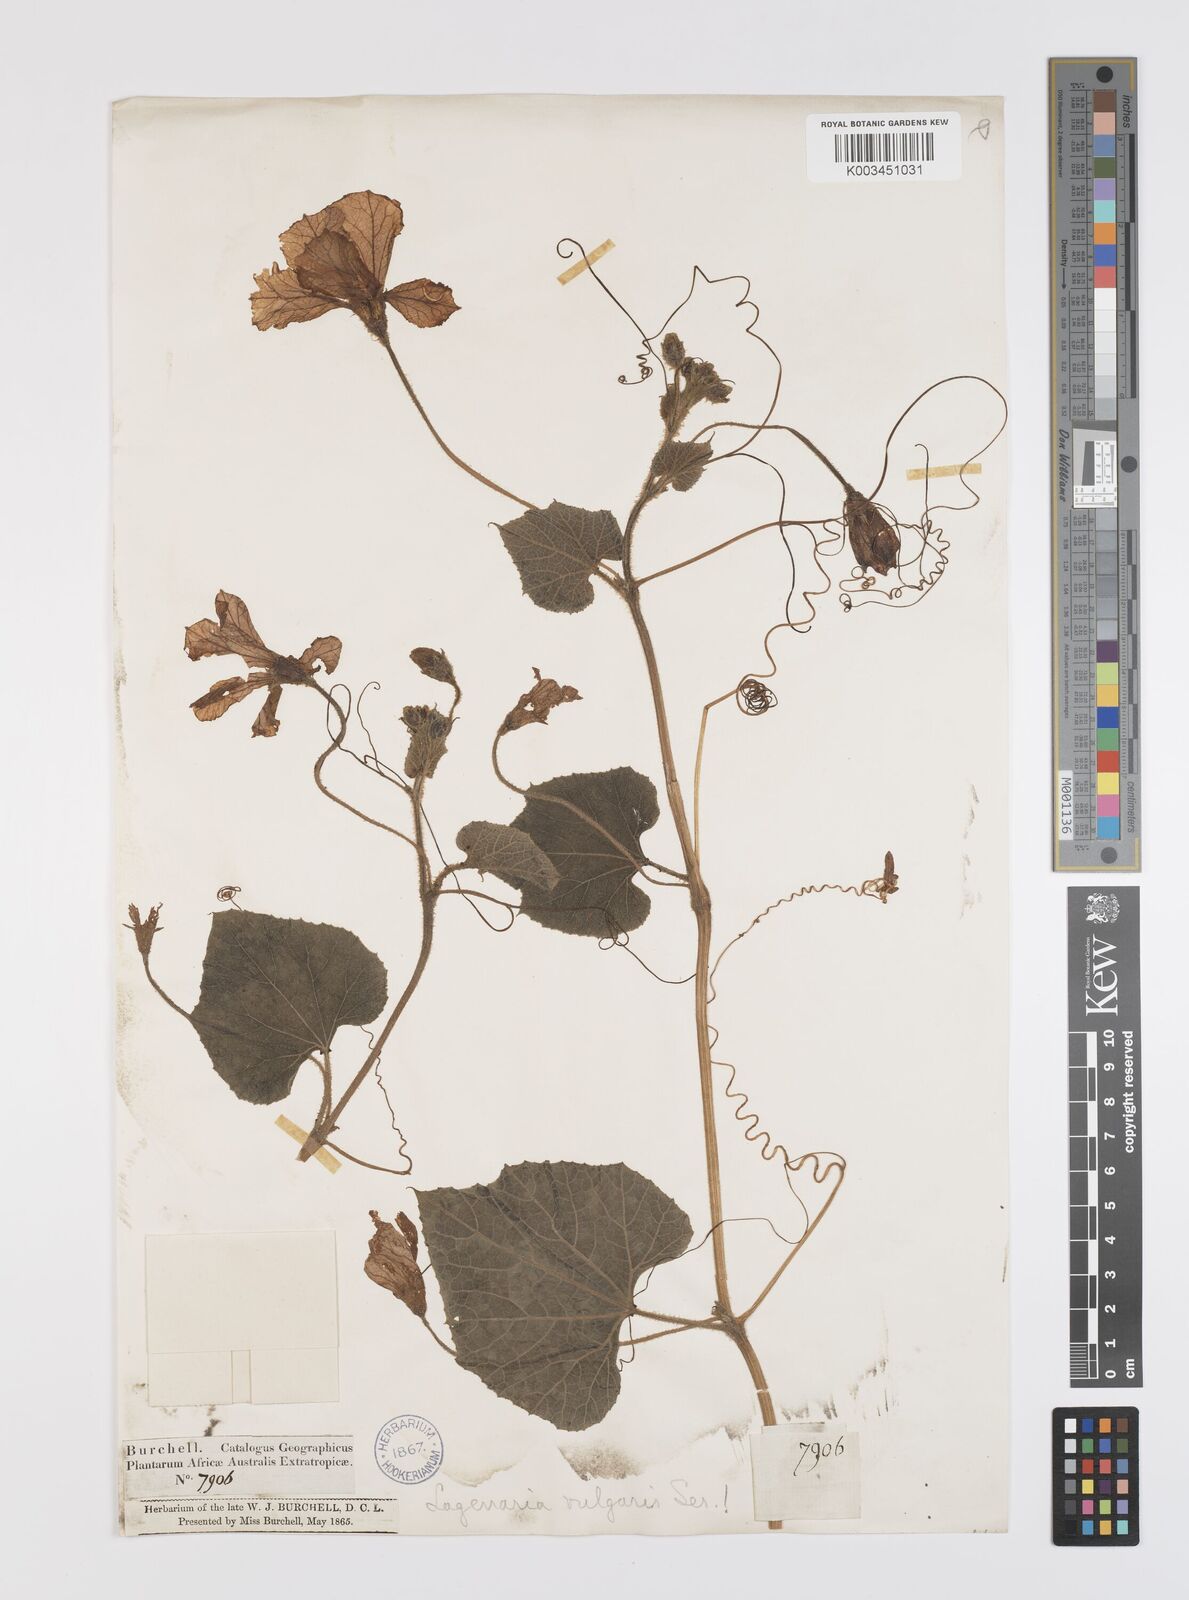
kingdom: Plantae
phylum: Tracheophyta
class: Magnoliopsida
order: Cucurbitales
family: Cucurbitaceae
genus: Lagenaria
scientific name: Lagenaria siceraria
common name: Bottle gourd
